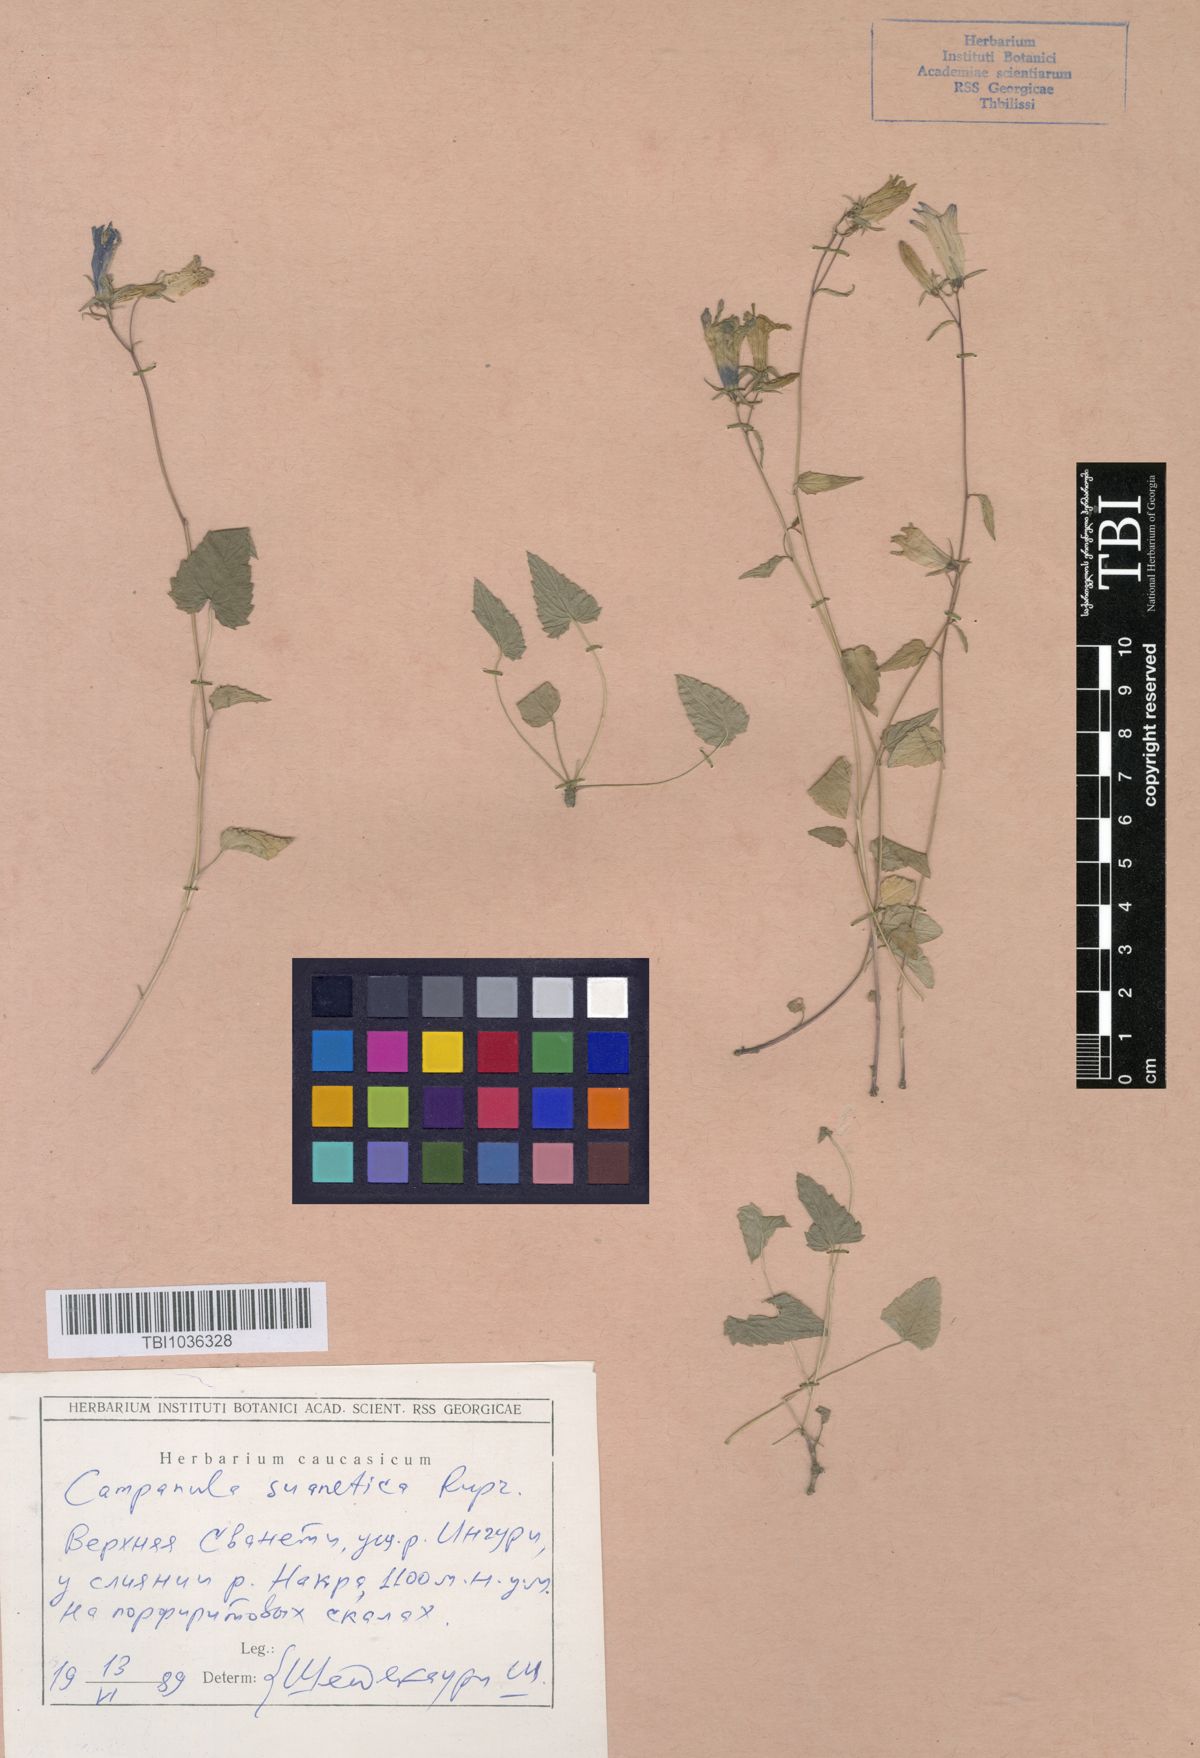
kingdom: Plantae
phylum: Tracheophyta
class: Magnoliopsida
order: Asterales
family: Campanulaceae
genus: Campanula
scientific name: Campanula suanetica
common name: Svanetian bellflower
